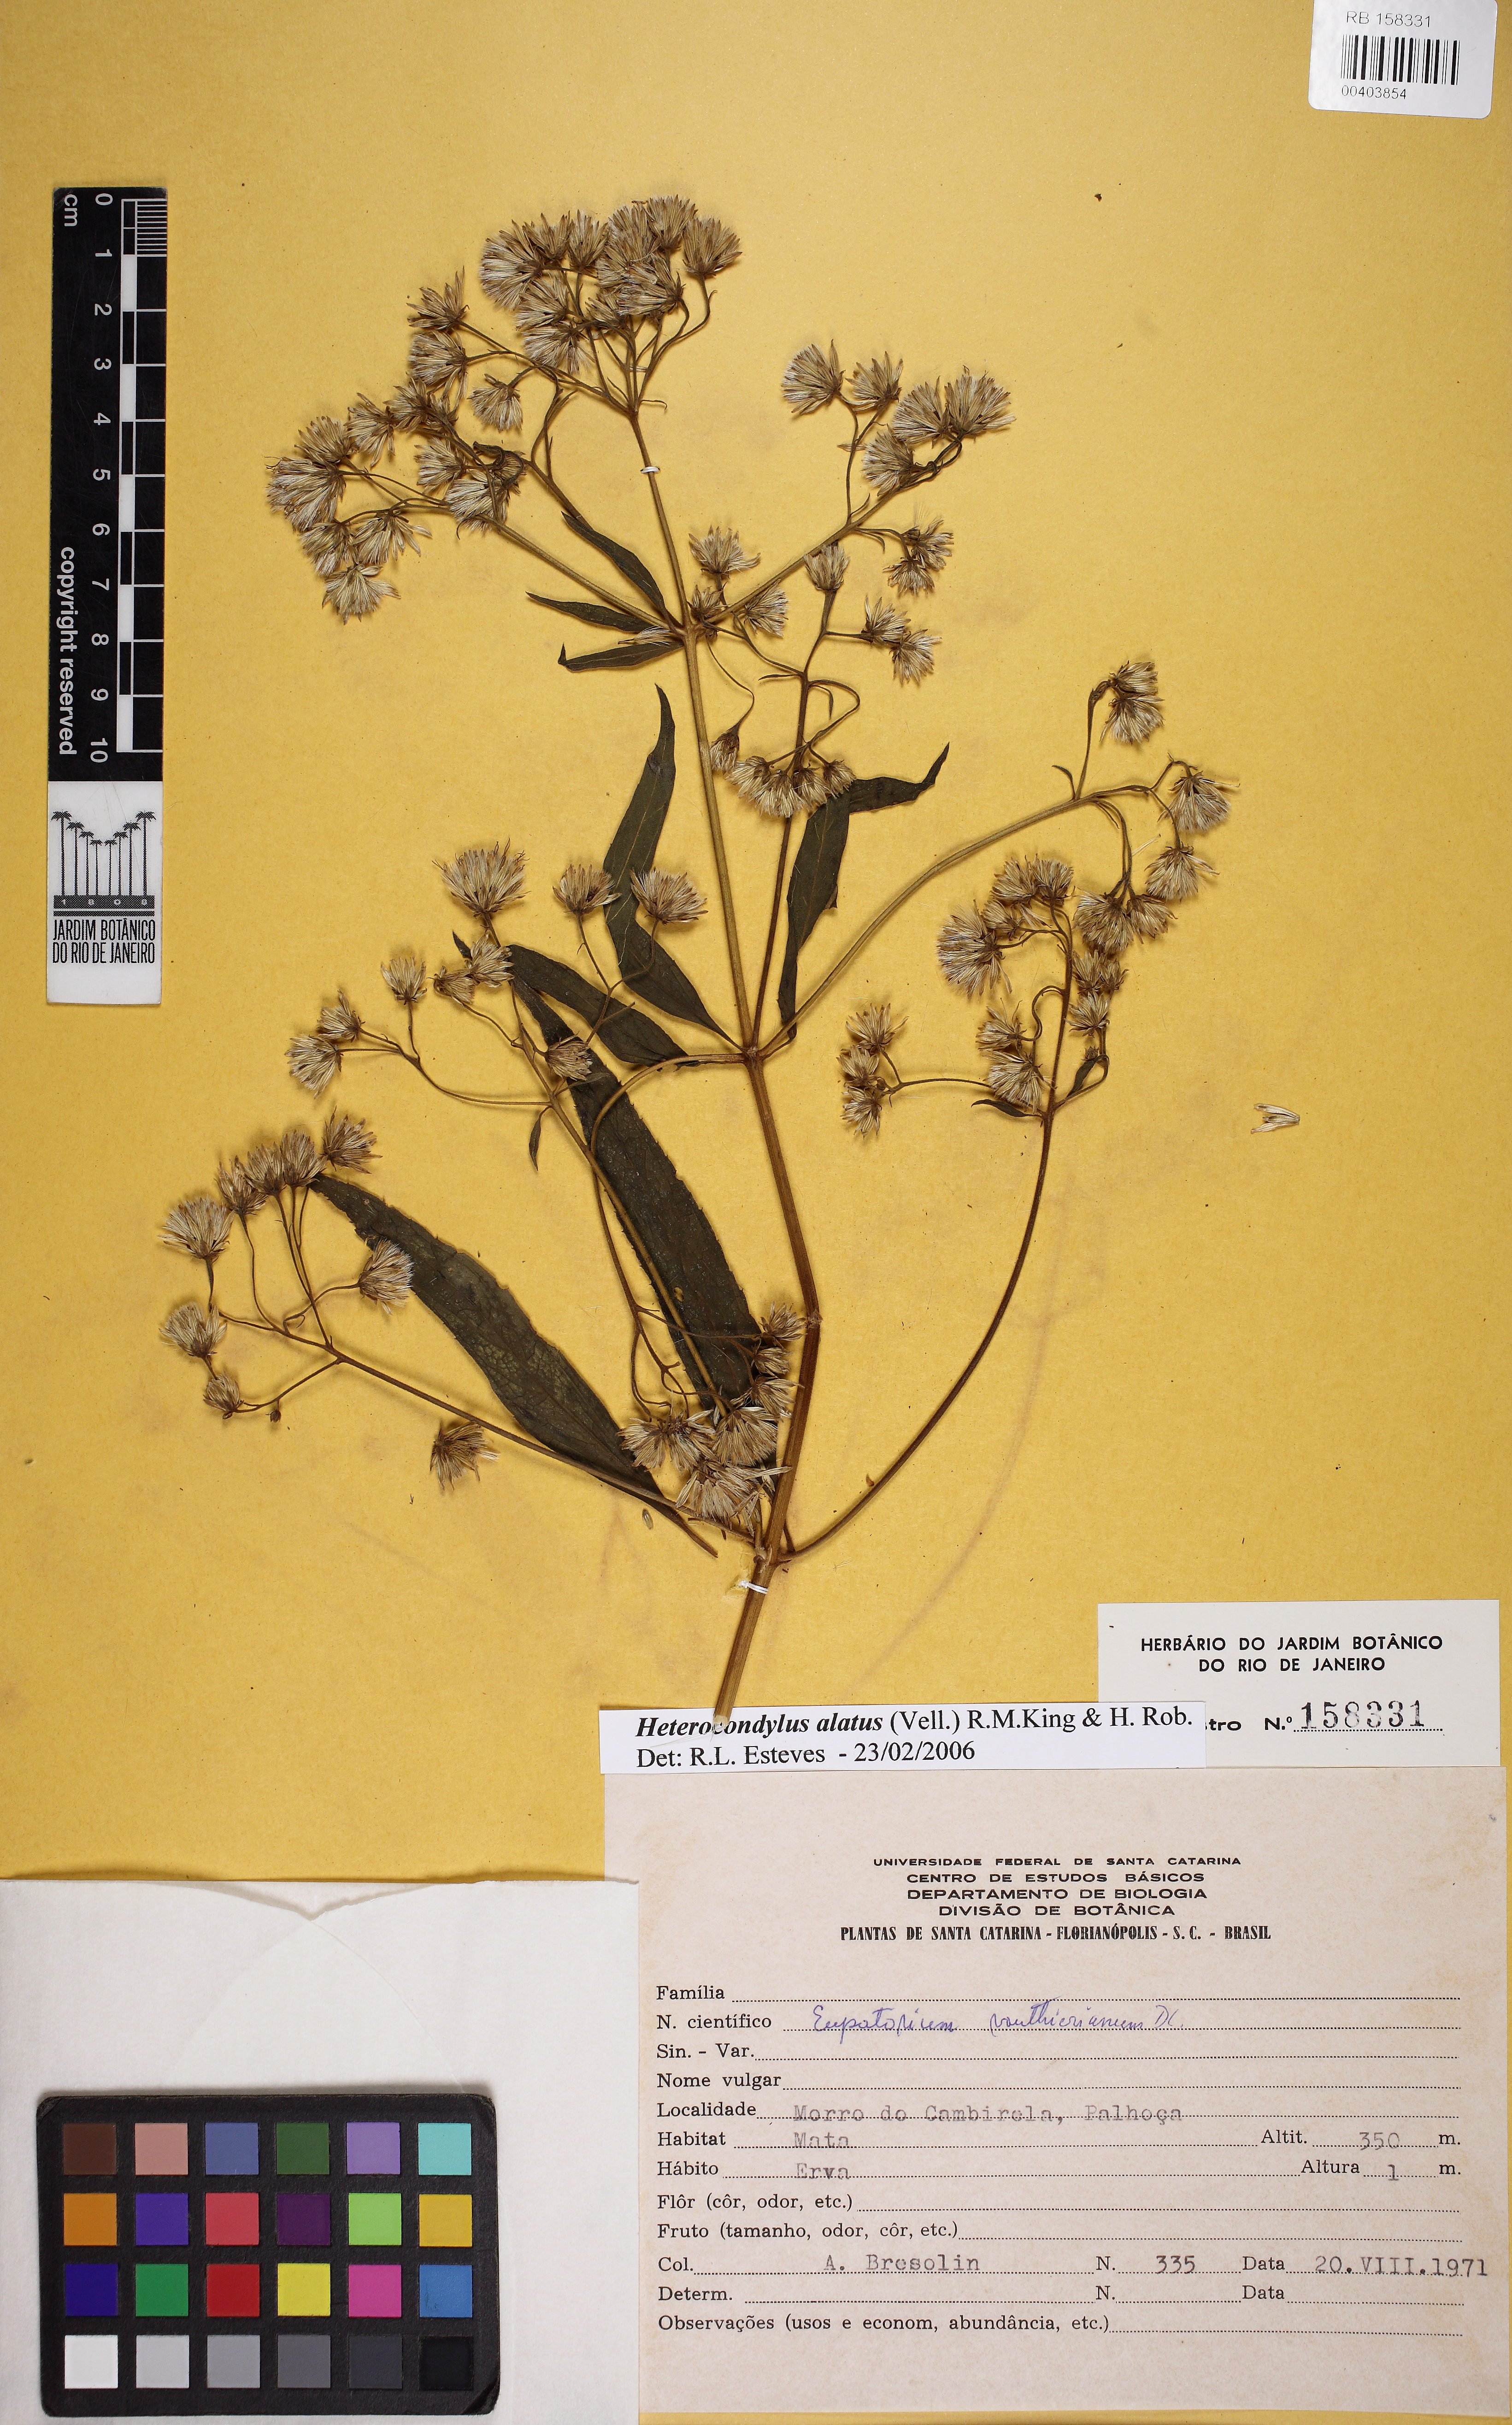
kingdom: Plantae
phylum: Tracheophyta
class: Magnoliopsida
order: Asterales
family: Asteraceae
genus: Heterocondylus
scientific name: Heterocondylus alatus
